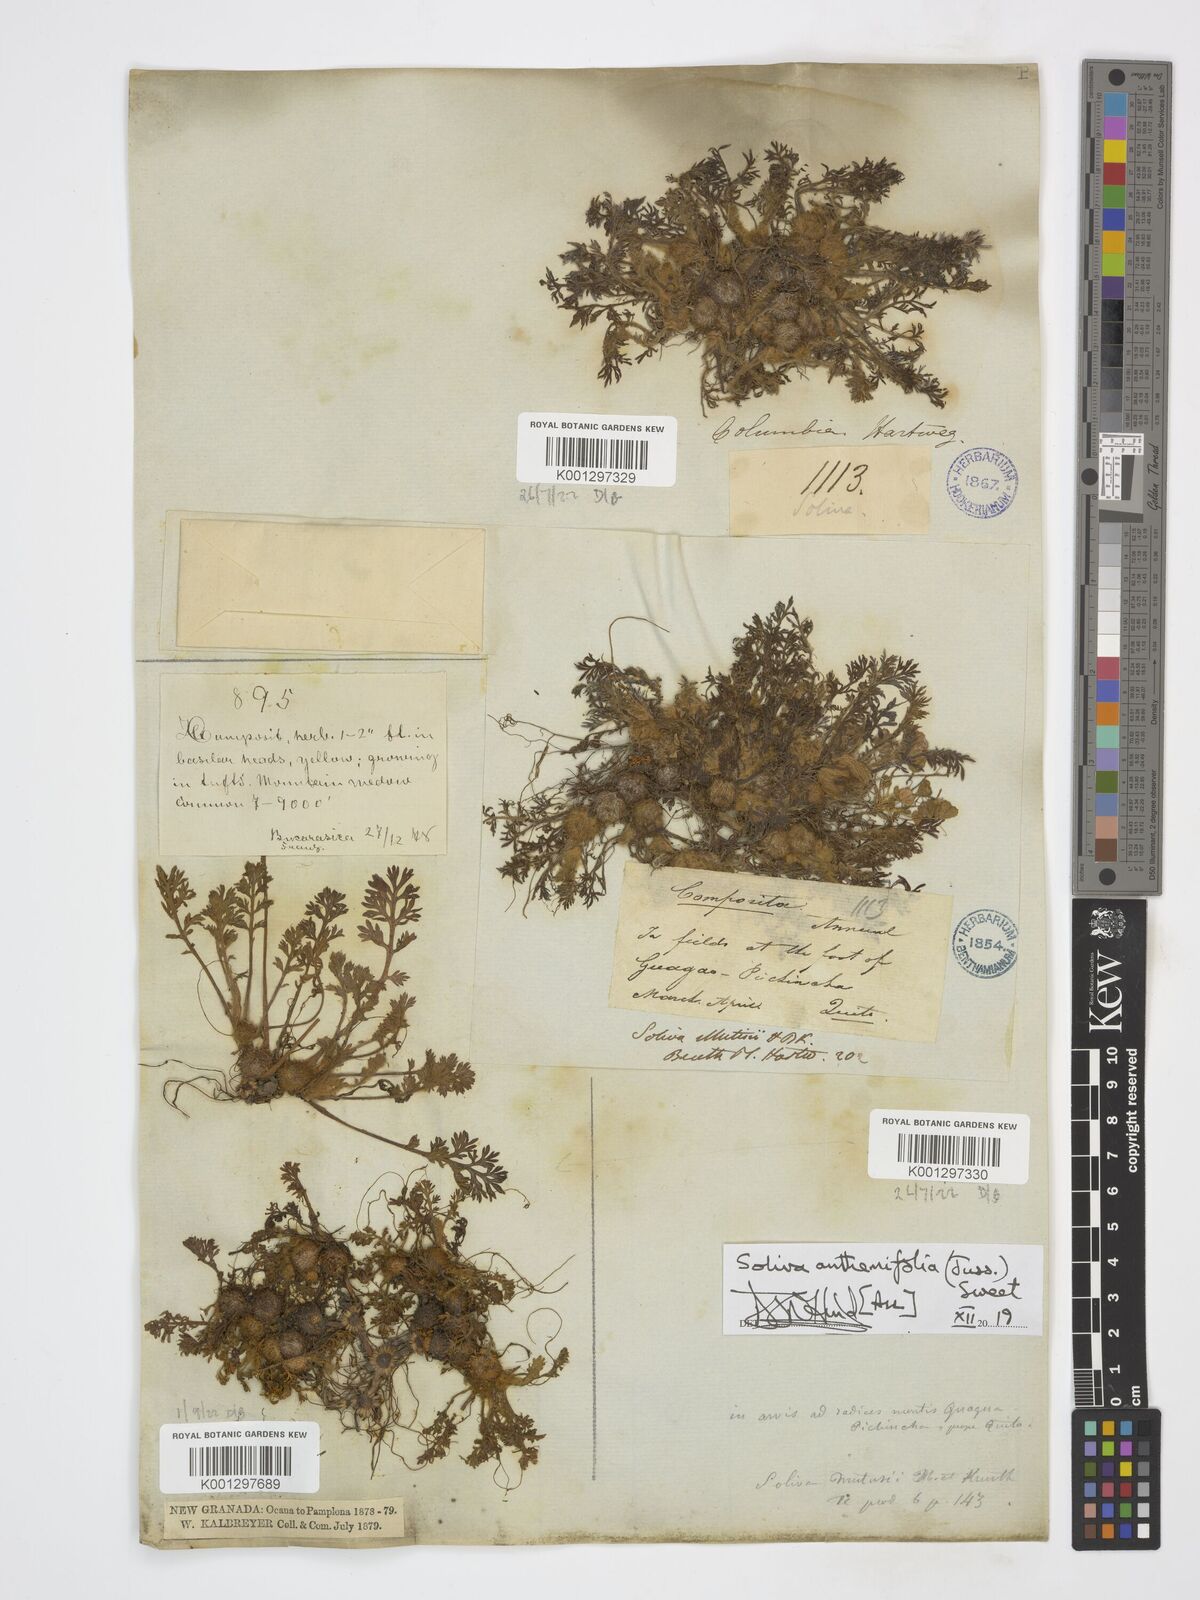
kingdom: Plantae
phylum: Tracheophyta
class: Magnoliopsida
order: Asterales
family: Asteraceae
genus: Soliva
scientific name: Soliva anthemifolia
